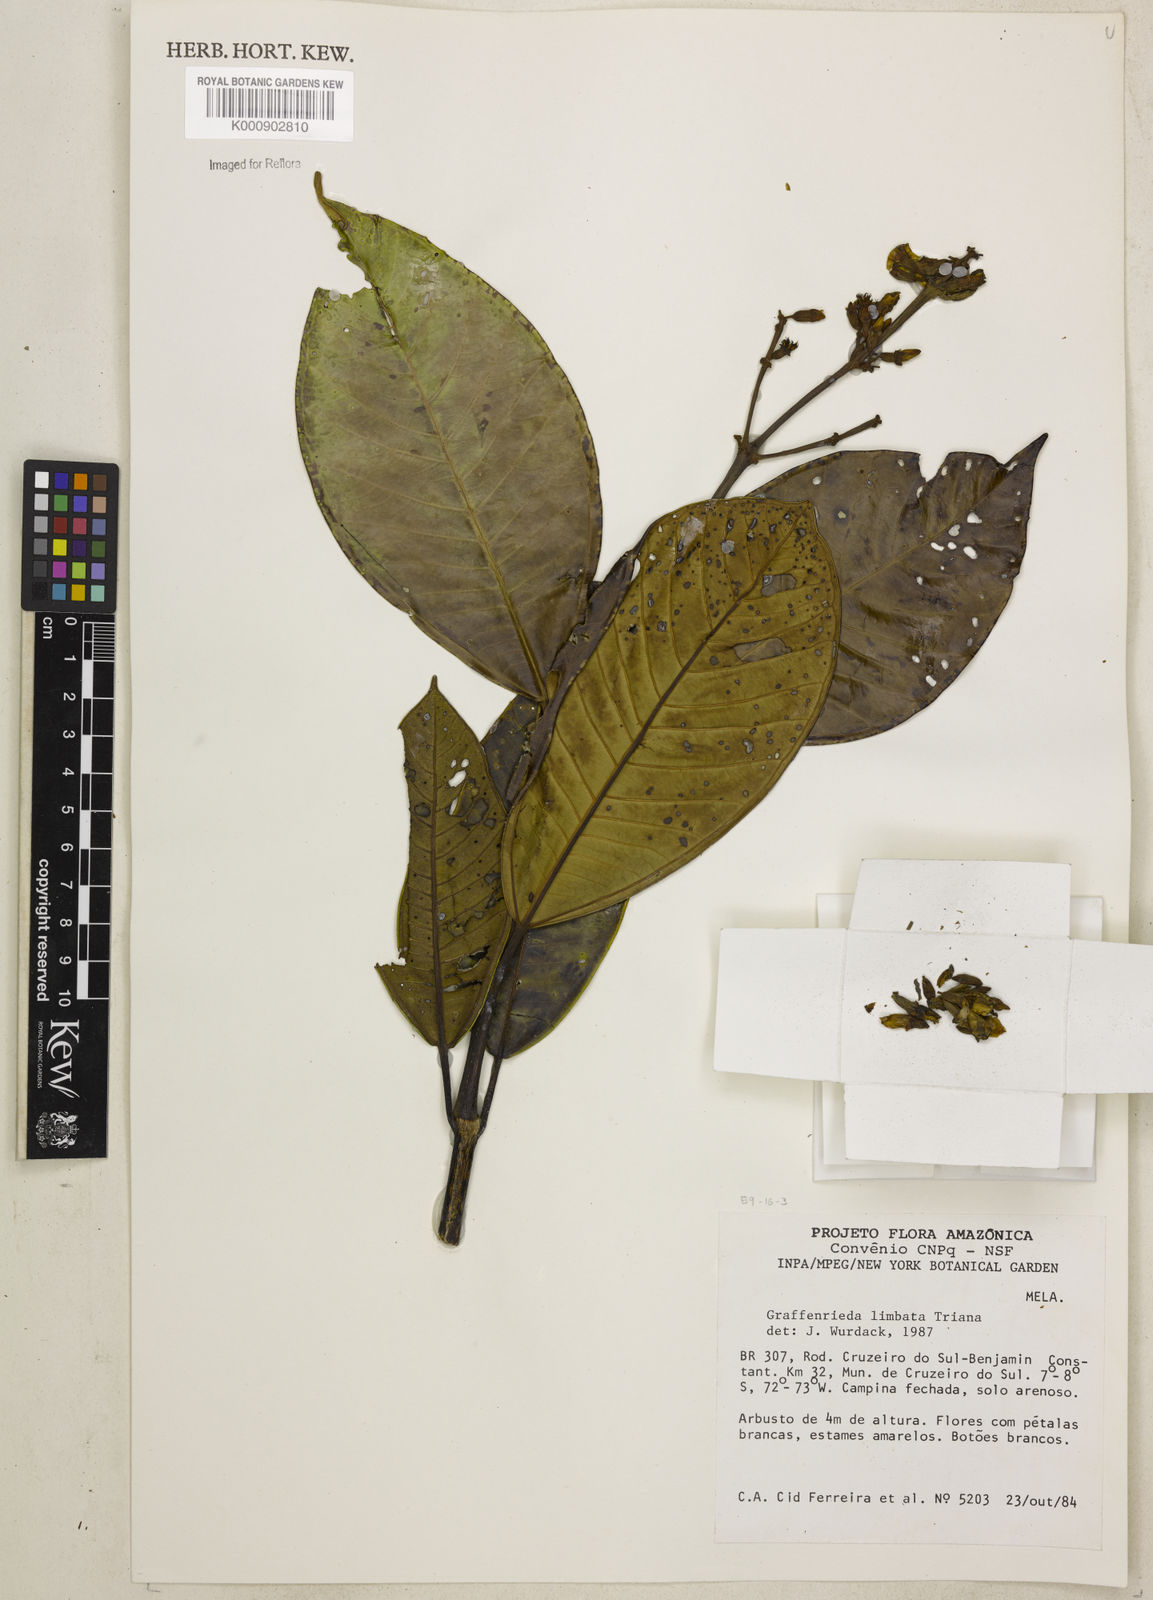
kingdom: Plantae
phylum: Tracheophyta
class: Magnoliopsida
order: Myrtales
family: Melastomataceae
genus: Graffenrieda
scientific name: Graffenrieda limbata
